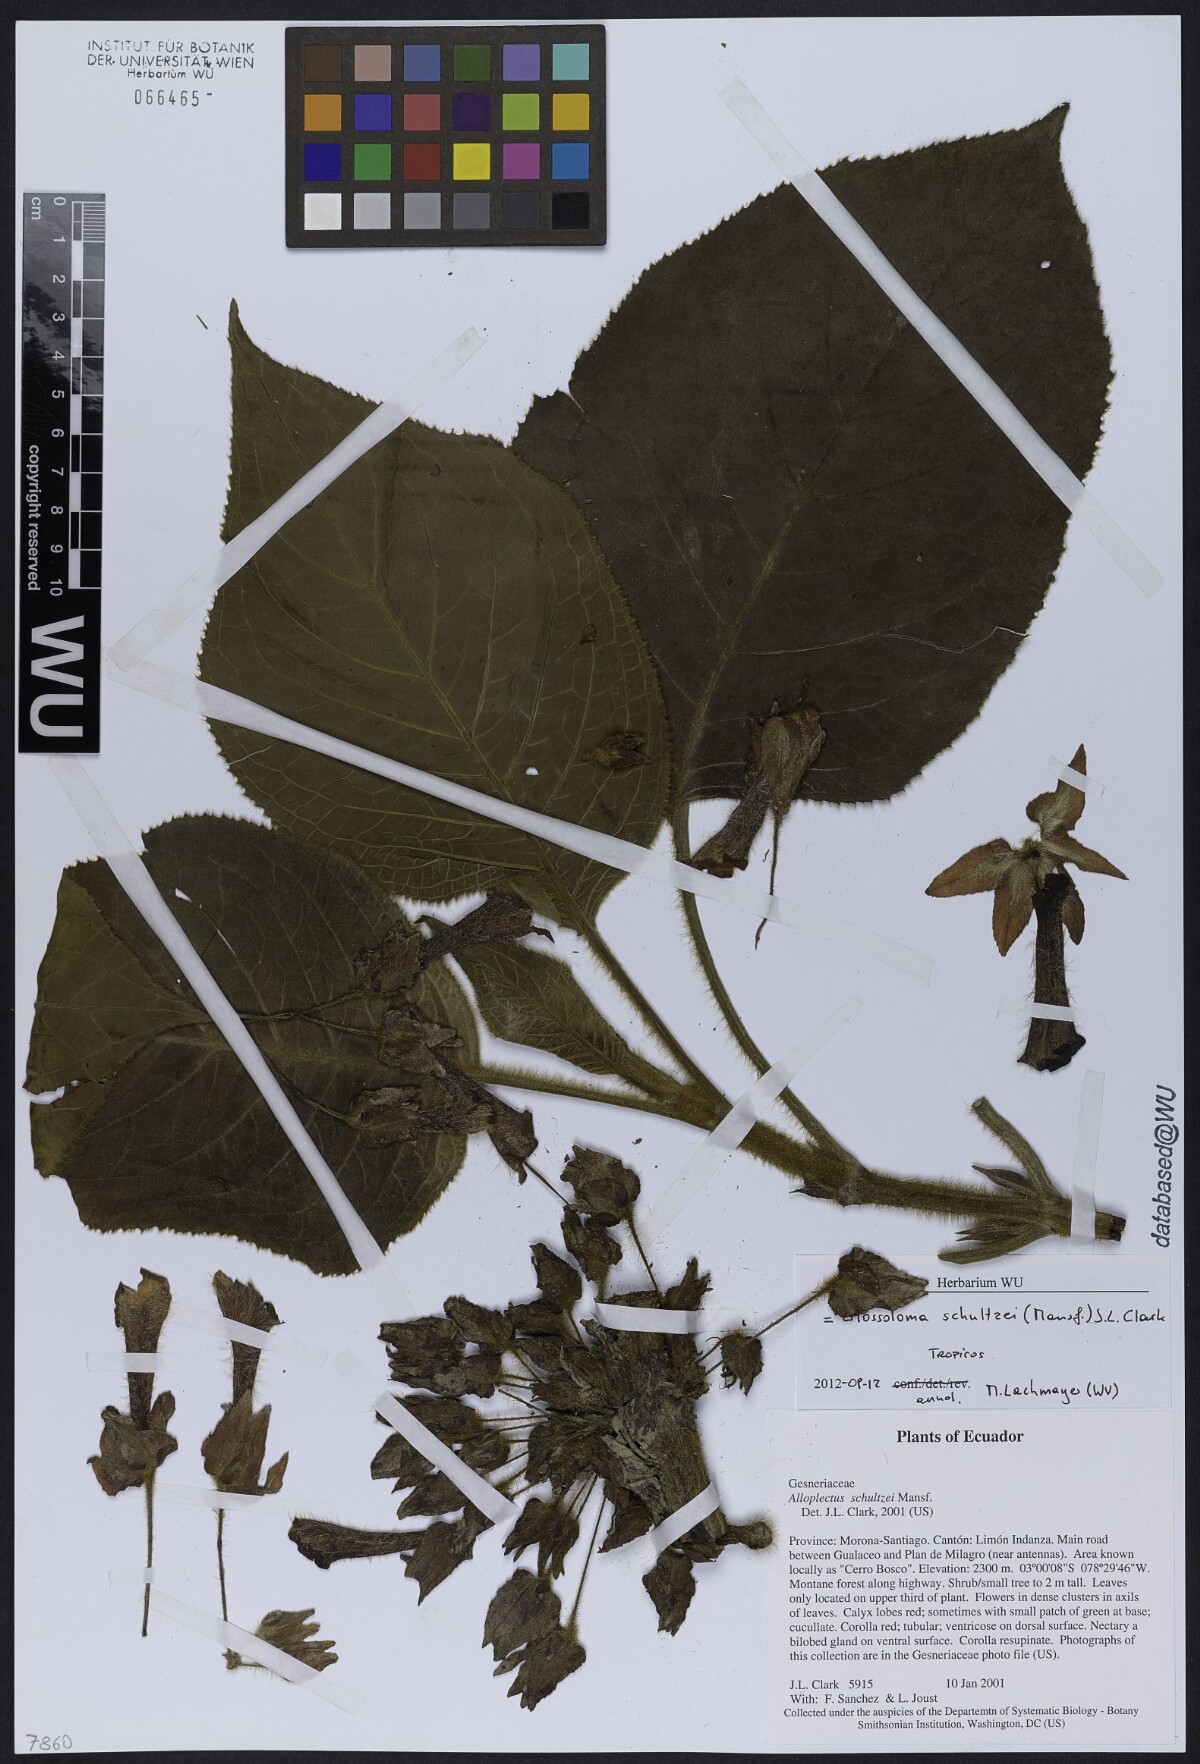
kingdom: Plantae
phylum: Tracheophyta
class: Magnoliopsida
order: Lamiales
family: Gesneriaceae
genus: Glossoloma
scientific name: Glossoloma schultzei
